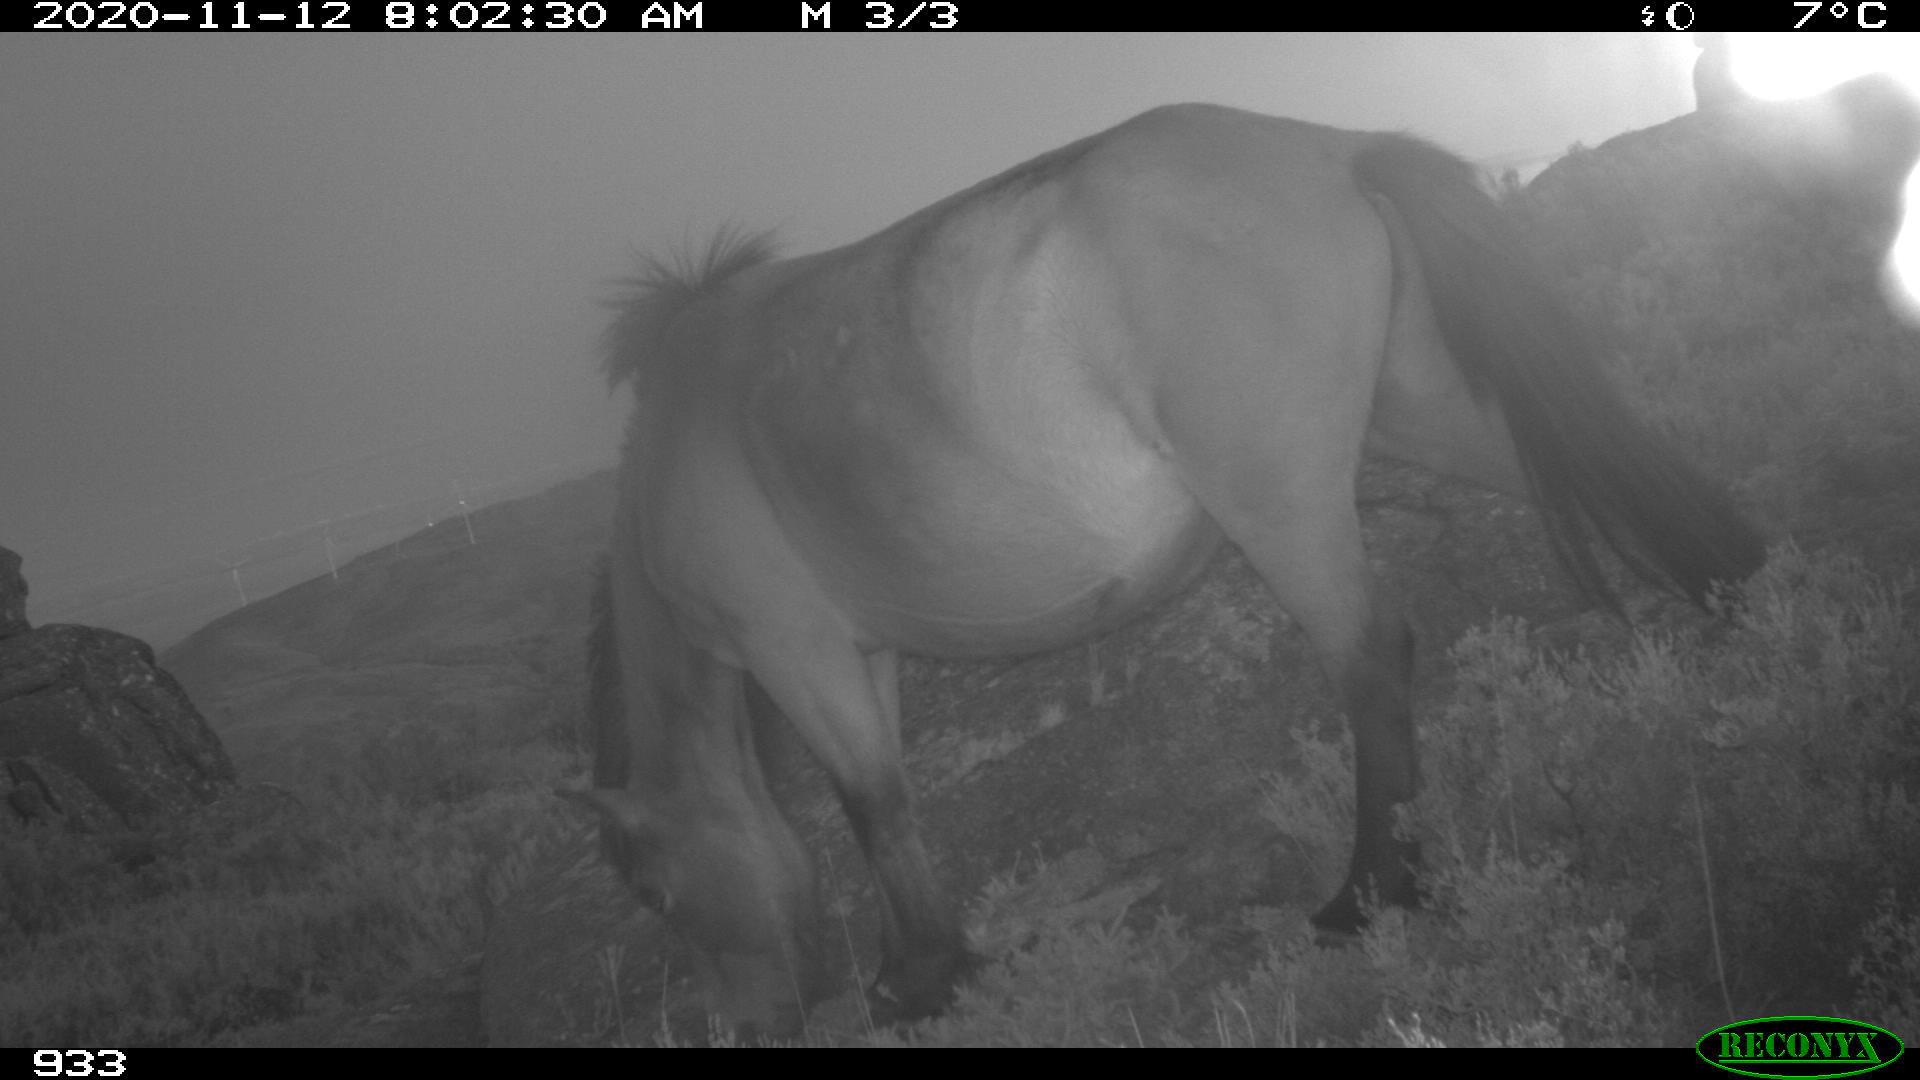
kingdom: Animalia
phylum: Chordata
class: Mammalia
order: Perissodactyla
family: Equidae
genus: Equus
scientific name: Equus caballus
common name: Horse
